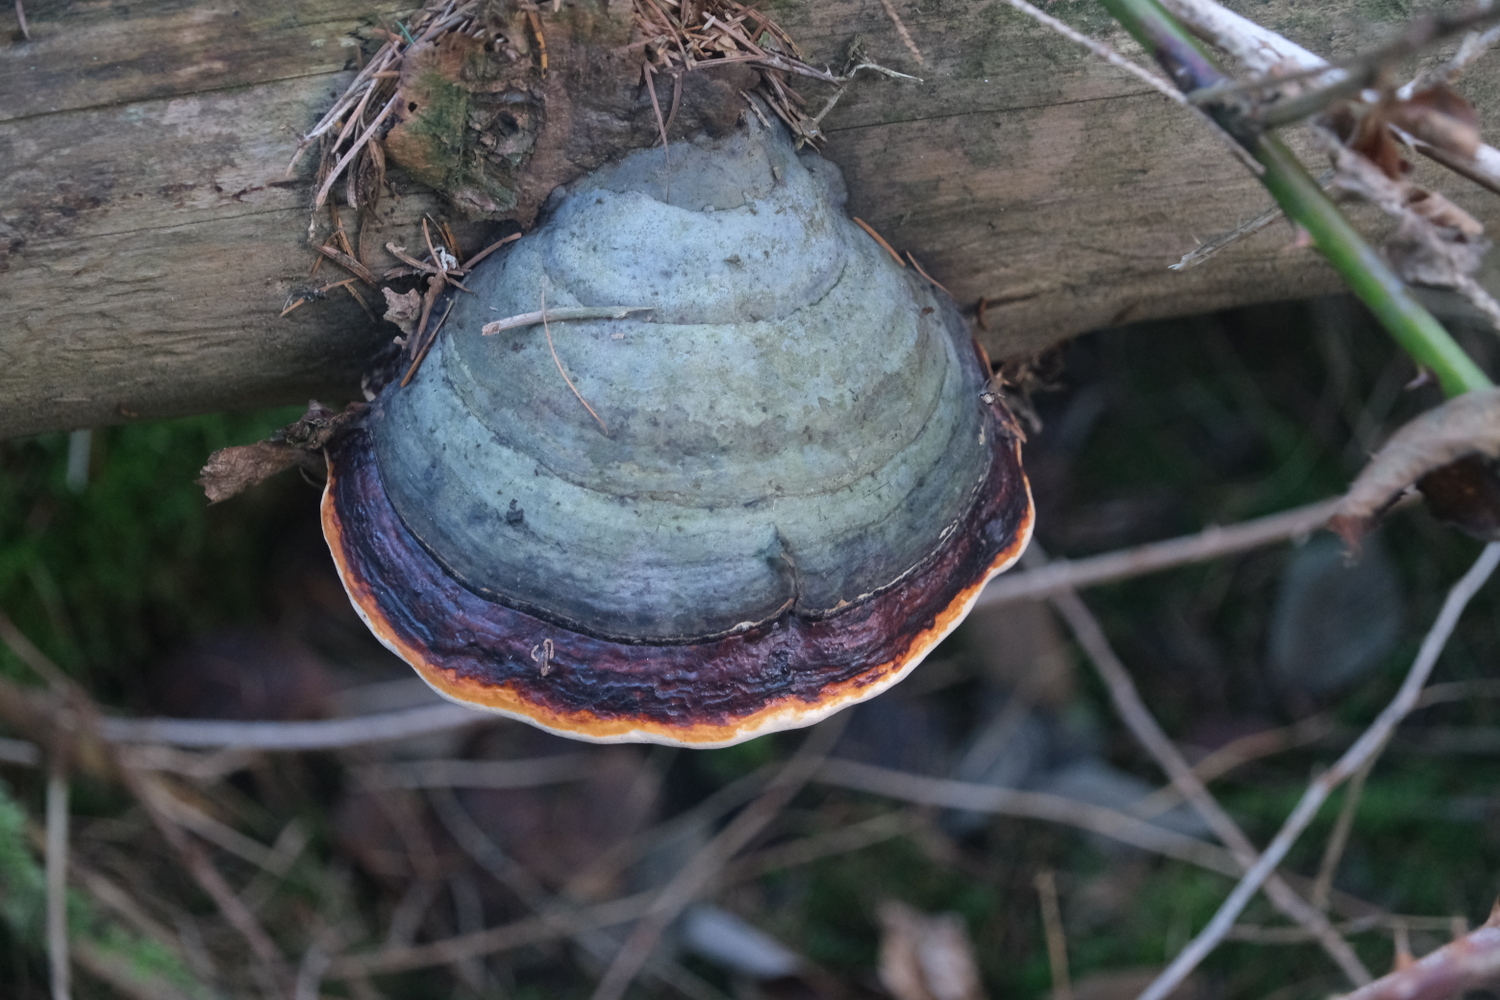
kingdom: Fungi
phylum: Basidiomycota
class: Agaricomycetes
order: Polyporales
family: Fomitopsidaceae
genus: Fomitopsis
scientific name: Fomitopsis pinicola
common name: randbæltet hovporesvamp
